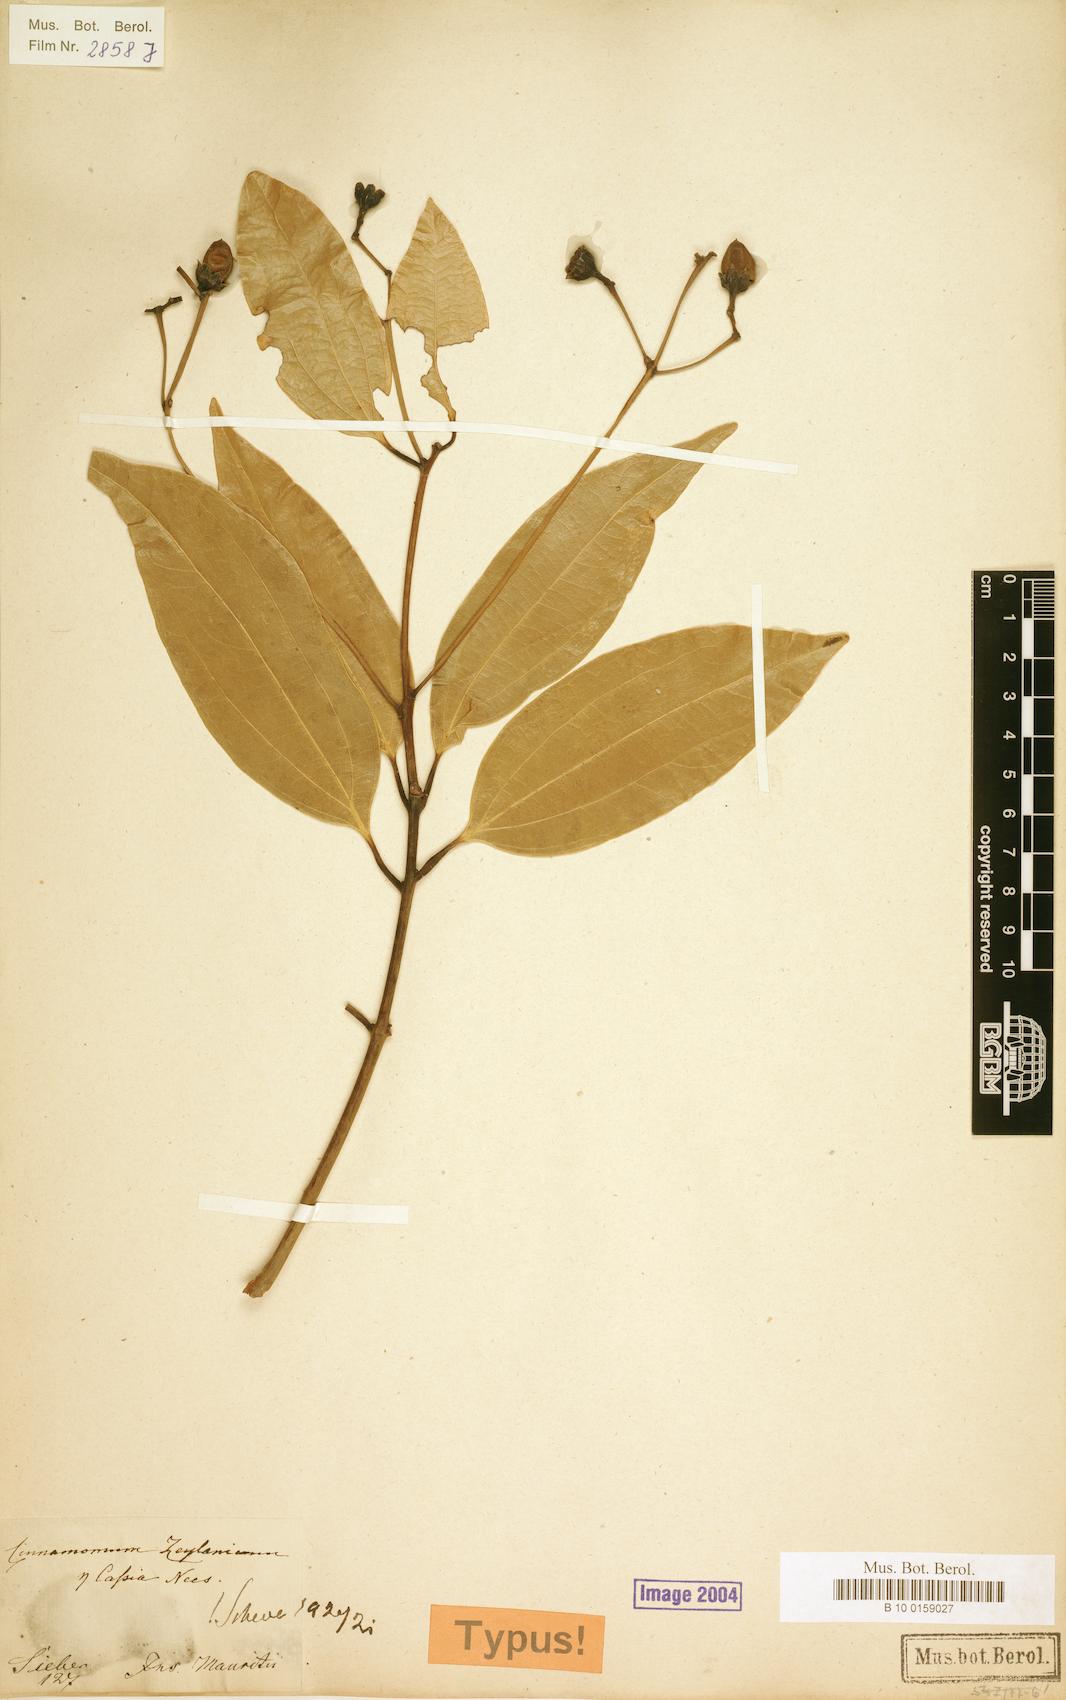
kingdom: Plantae
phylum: Tracheophyta
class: Magnoliopsida
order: Laurales
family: Lauraceae
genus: Cinnamomum
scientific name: Cinnamomum verum
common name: Cinnamon
